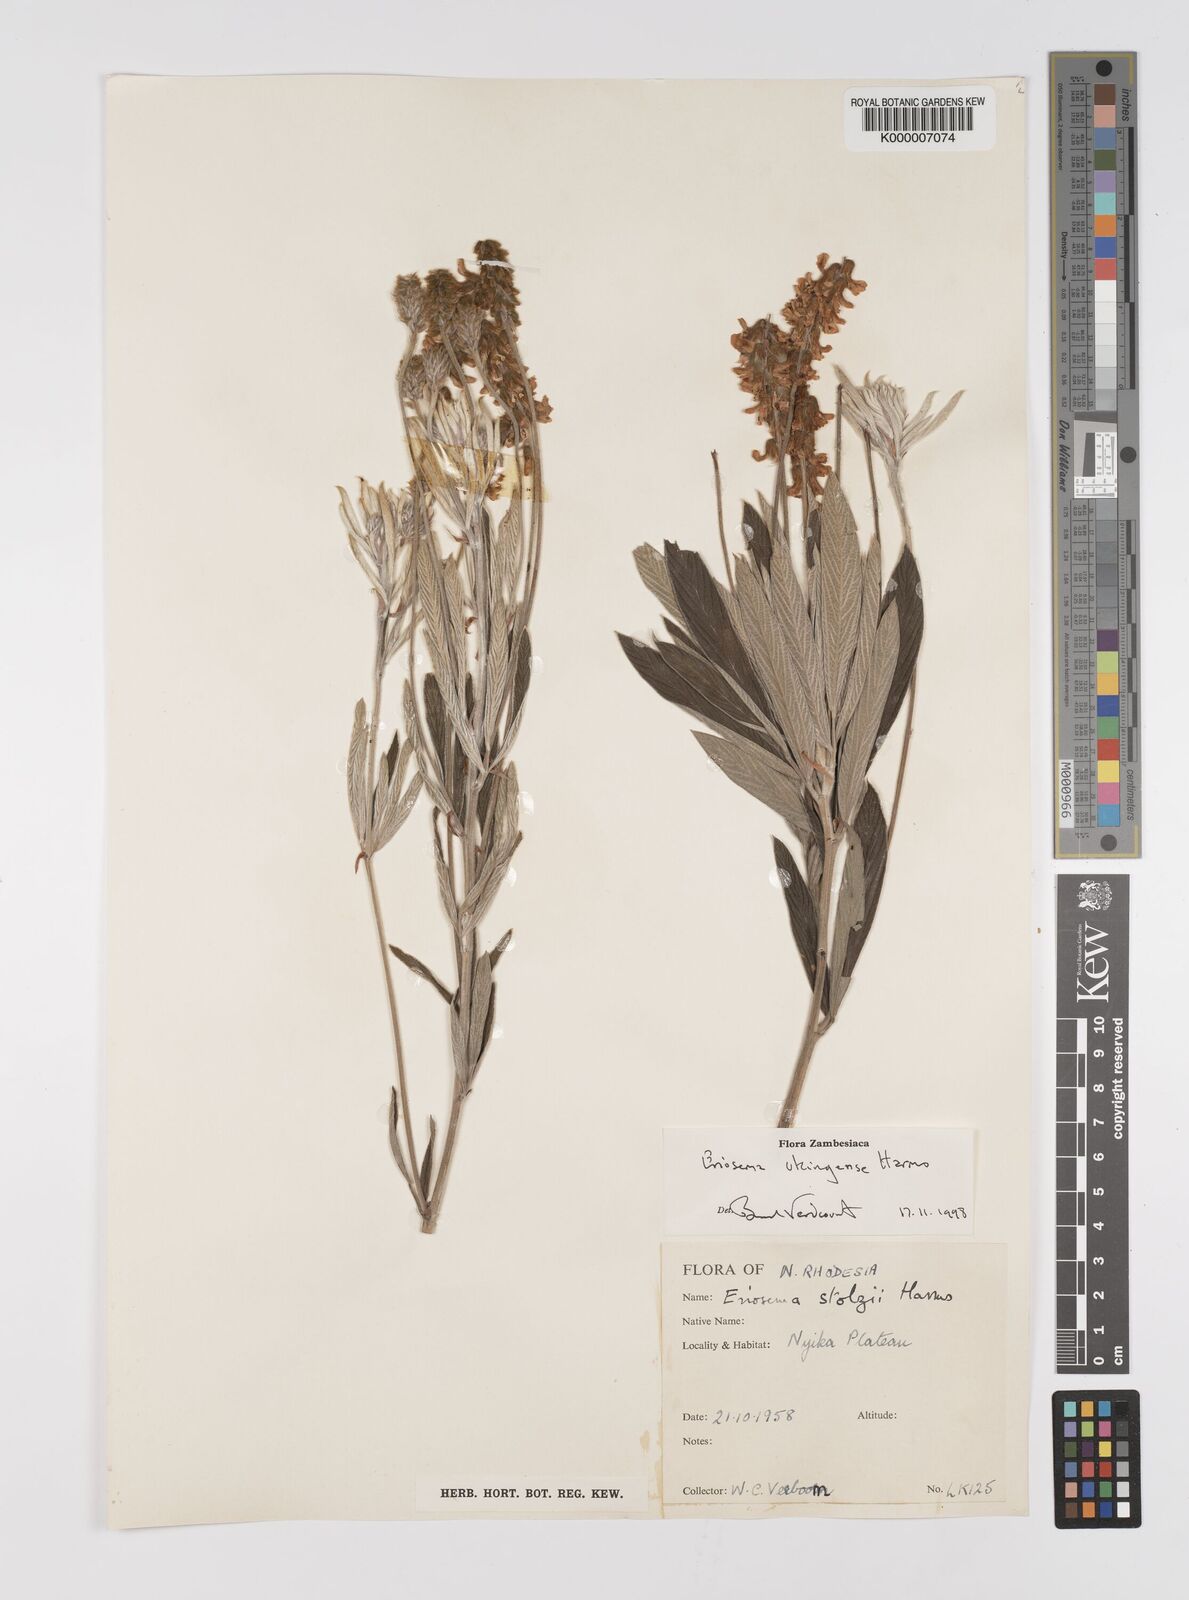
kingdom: Plantae
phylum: Tracheophyta
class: Magnoliopsida
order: Fabales
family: Fabaceae
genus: Eriosema
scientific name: Eriosema ukingense
